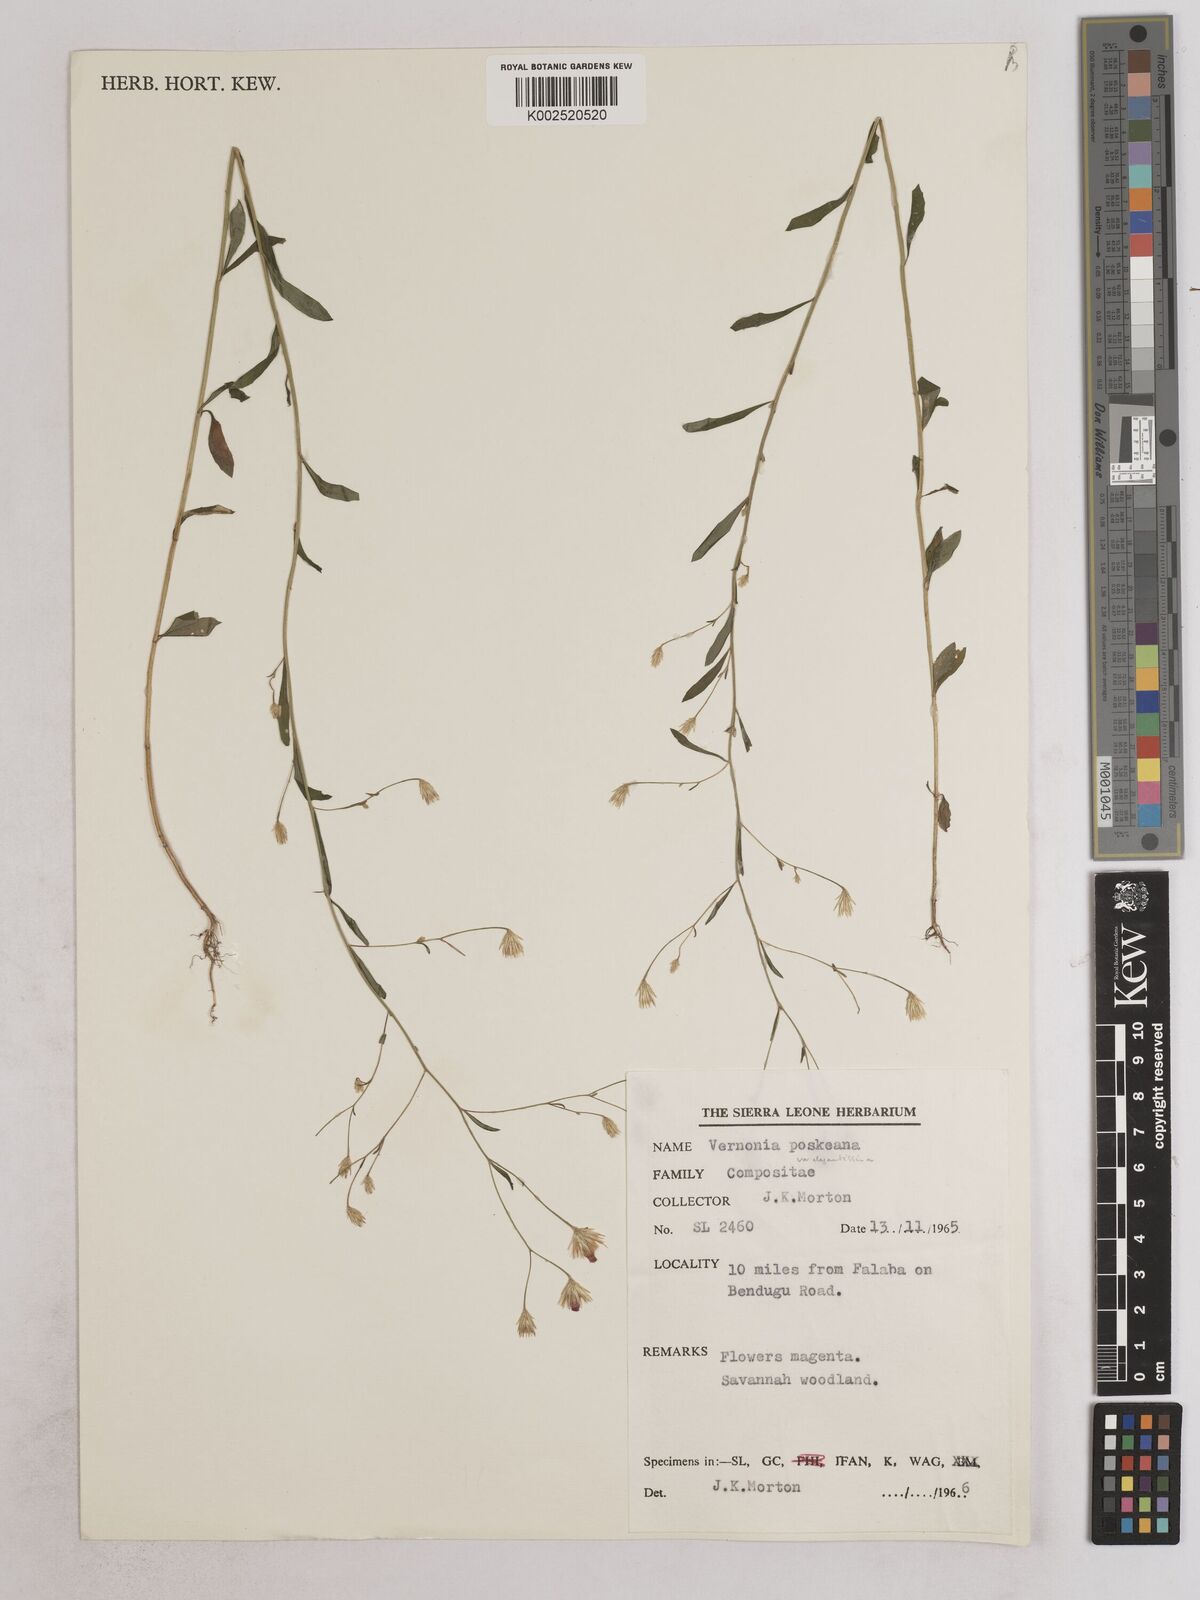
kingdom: Plantae
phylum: Tracheophyta
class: Magnoliopsida
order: Asterales
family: Asteraceae
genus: Crystallopollen
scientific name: Crystallopollen angustifolium
